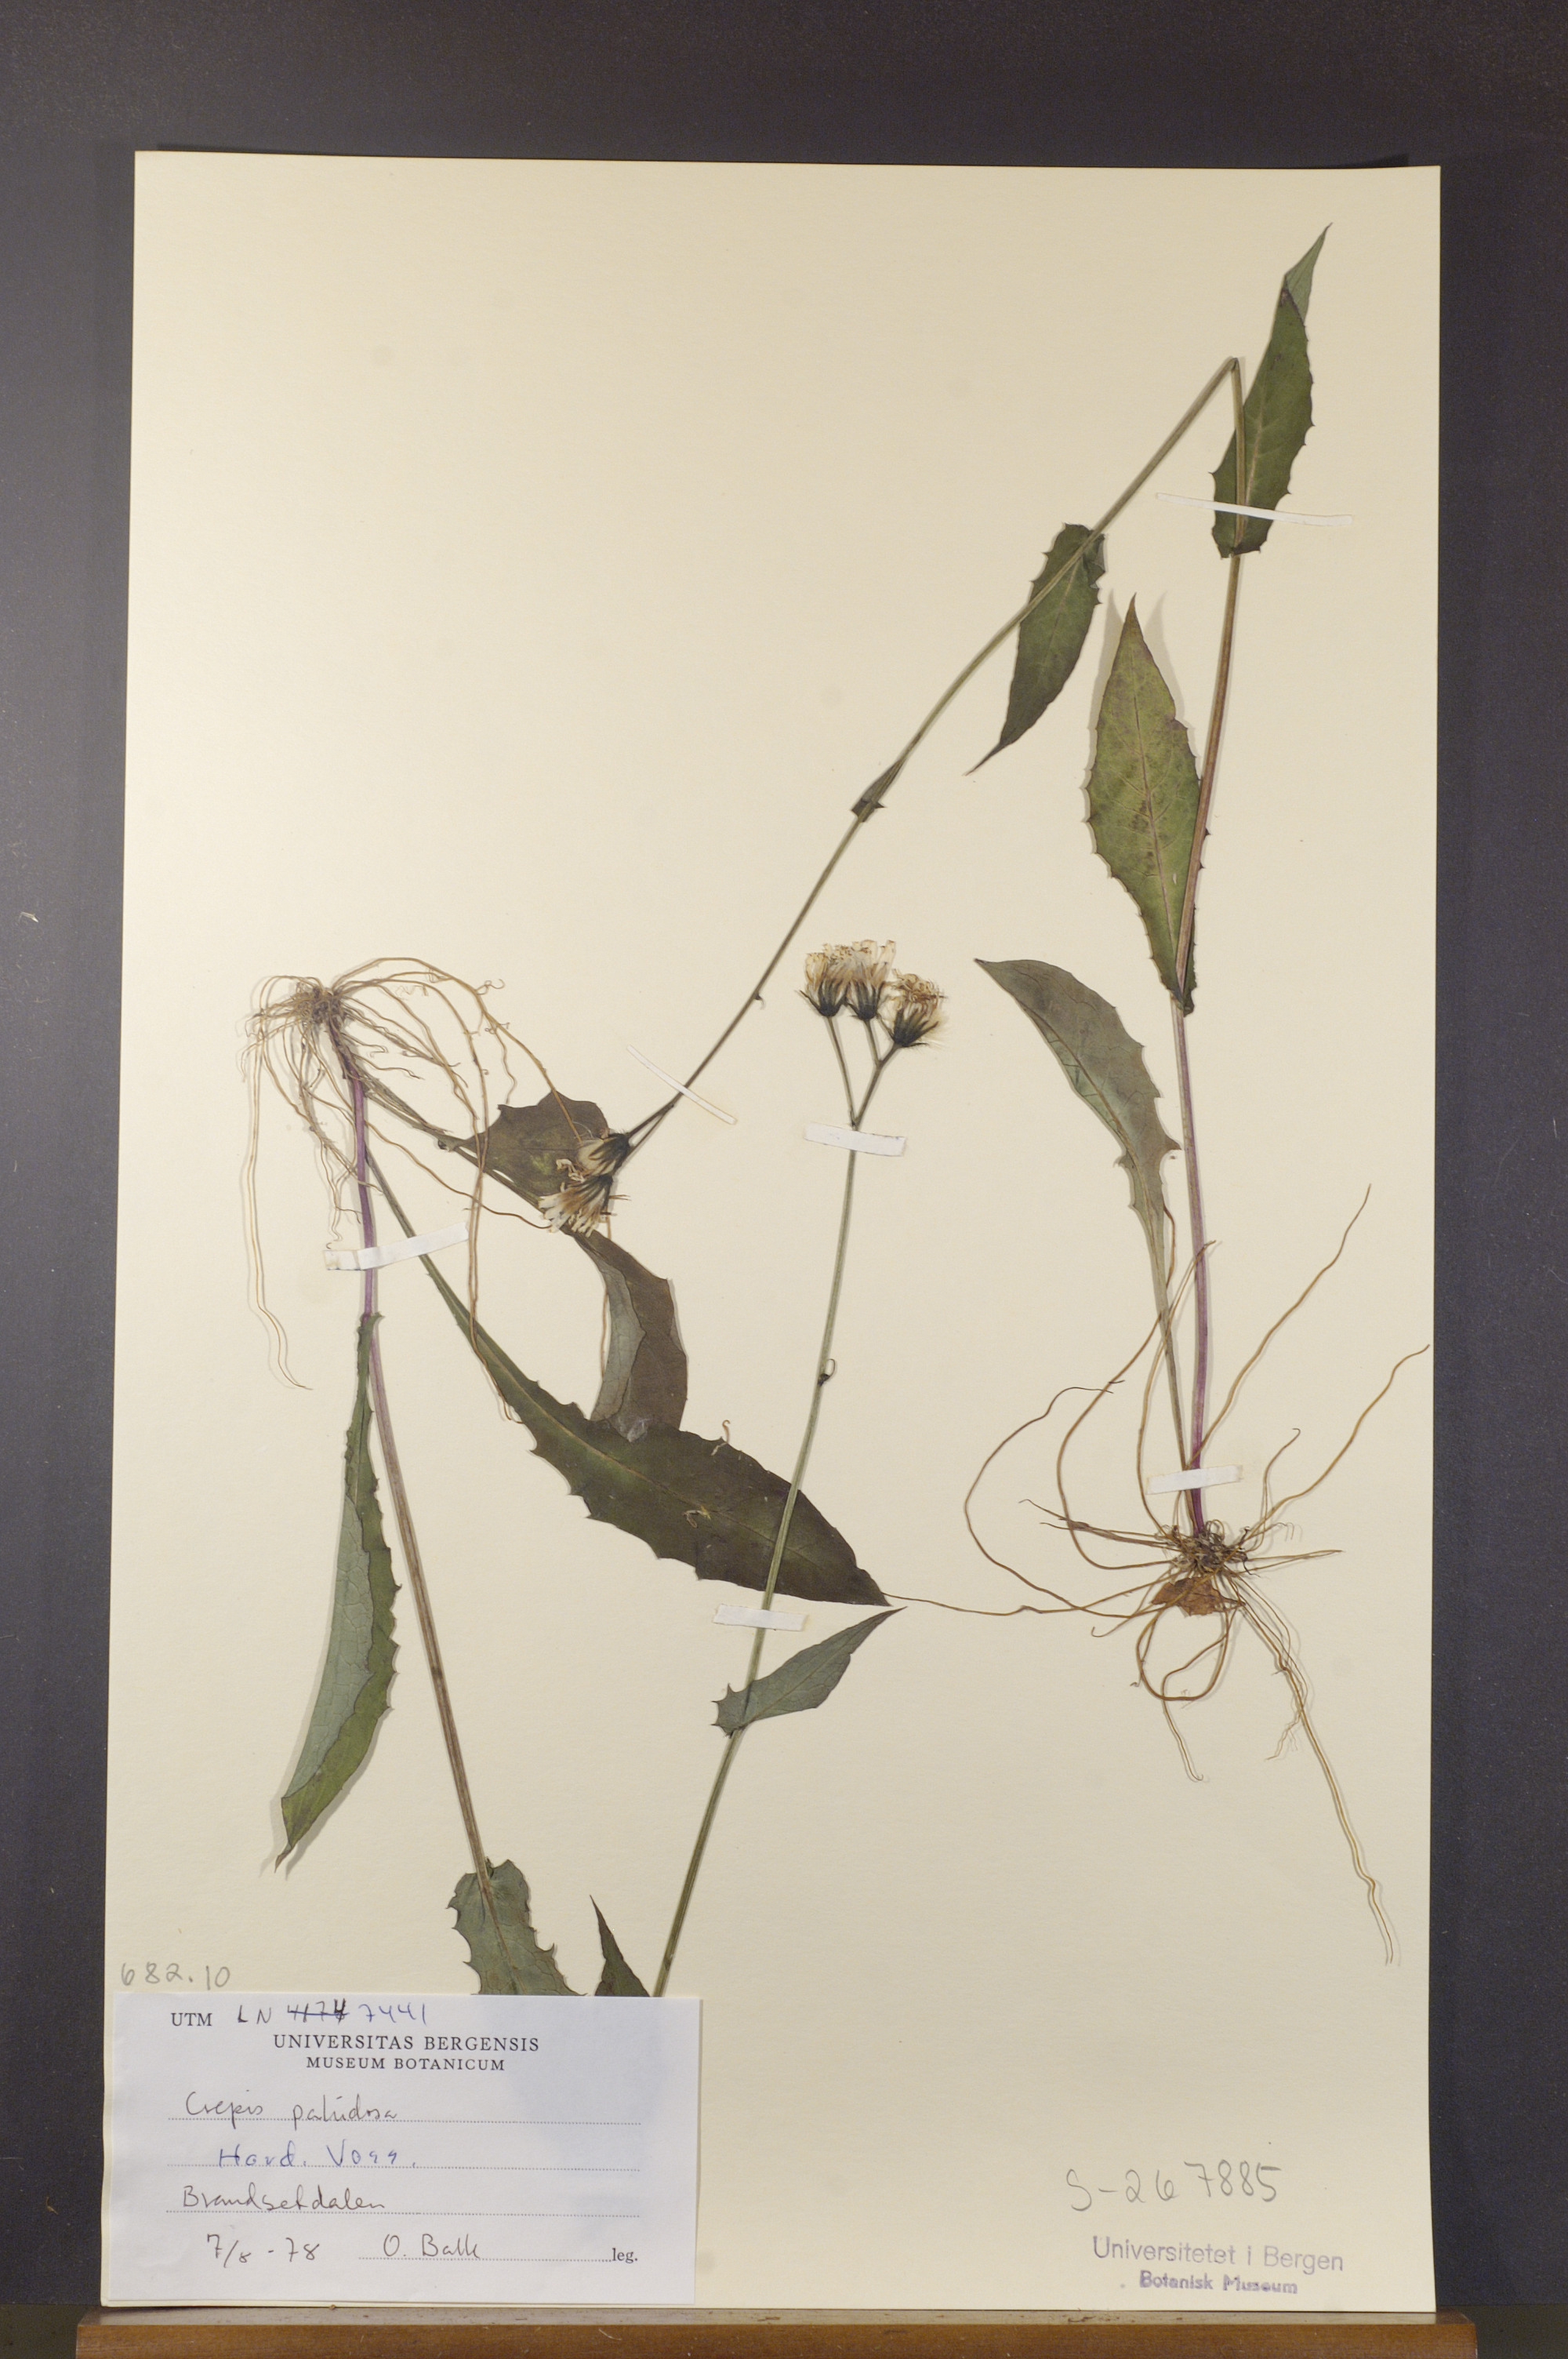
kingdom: Plantae
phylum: Tracheophyta
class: Magnoliopsida
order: Asterales
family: Asteraceae
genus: Crepis
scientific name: Crepis paludosa
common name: Marsh hawk's-beard
